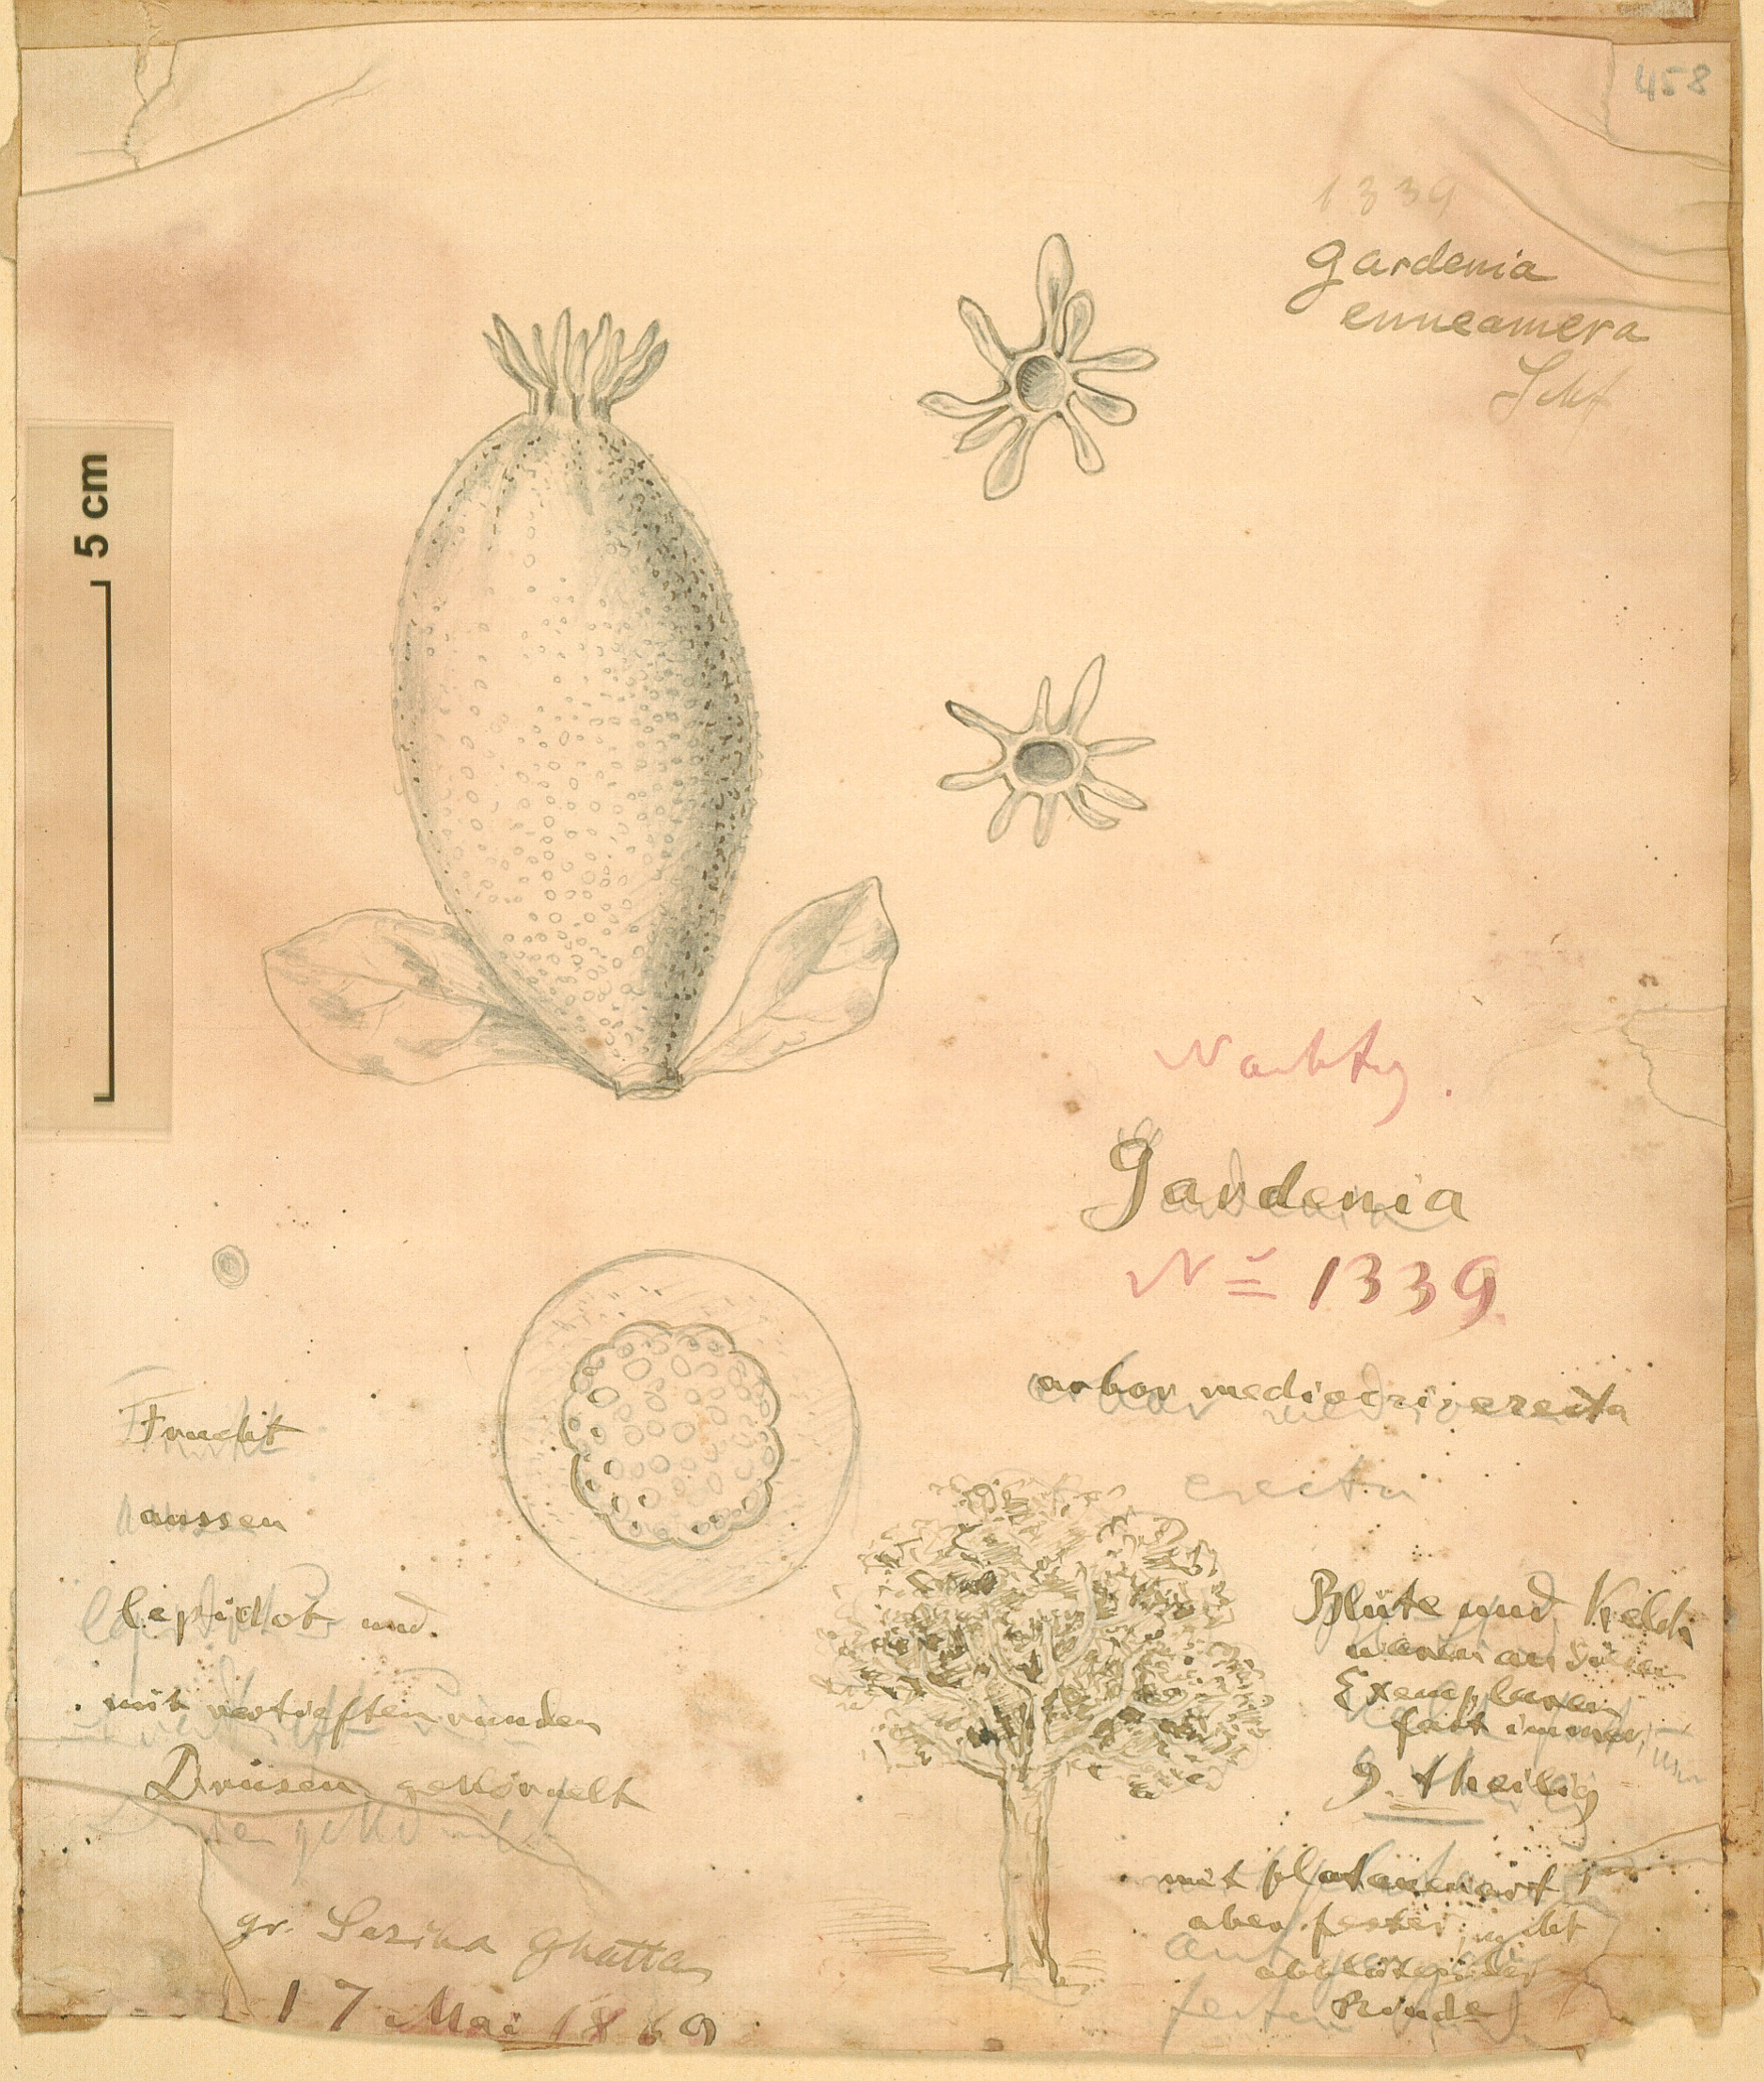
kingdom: Plantae
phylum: Tracheophyta
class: Magnoliopsida
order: Gentianales
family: Rubiaceae
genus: Gardenia
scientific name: Gardenia ternifolia
